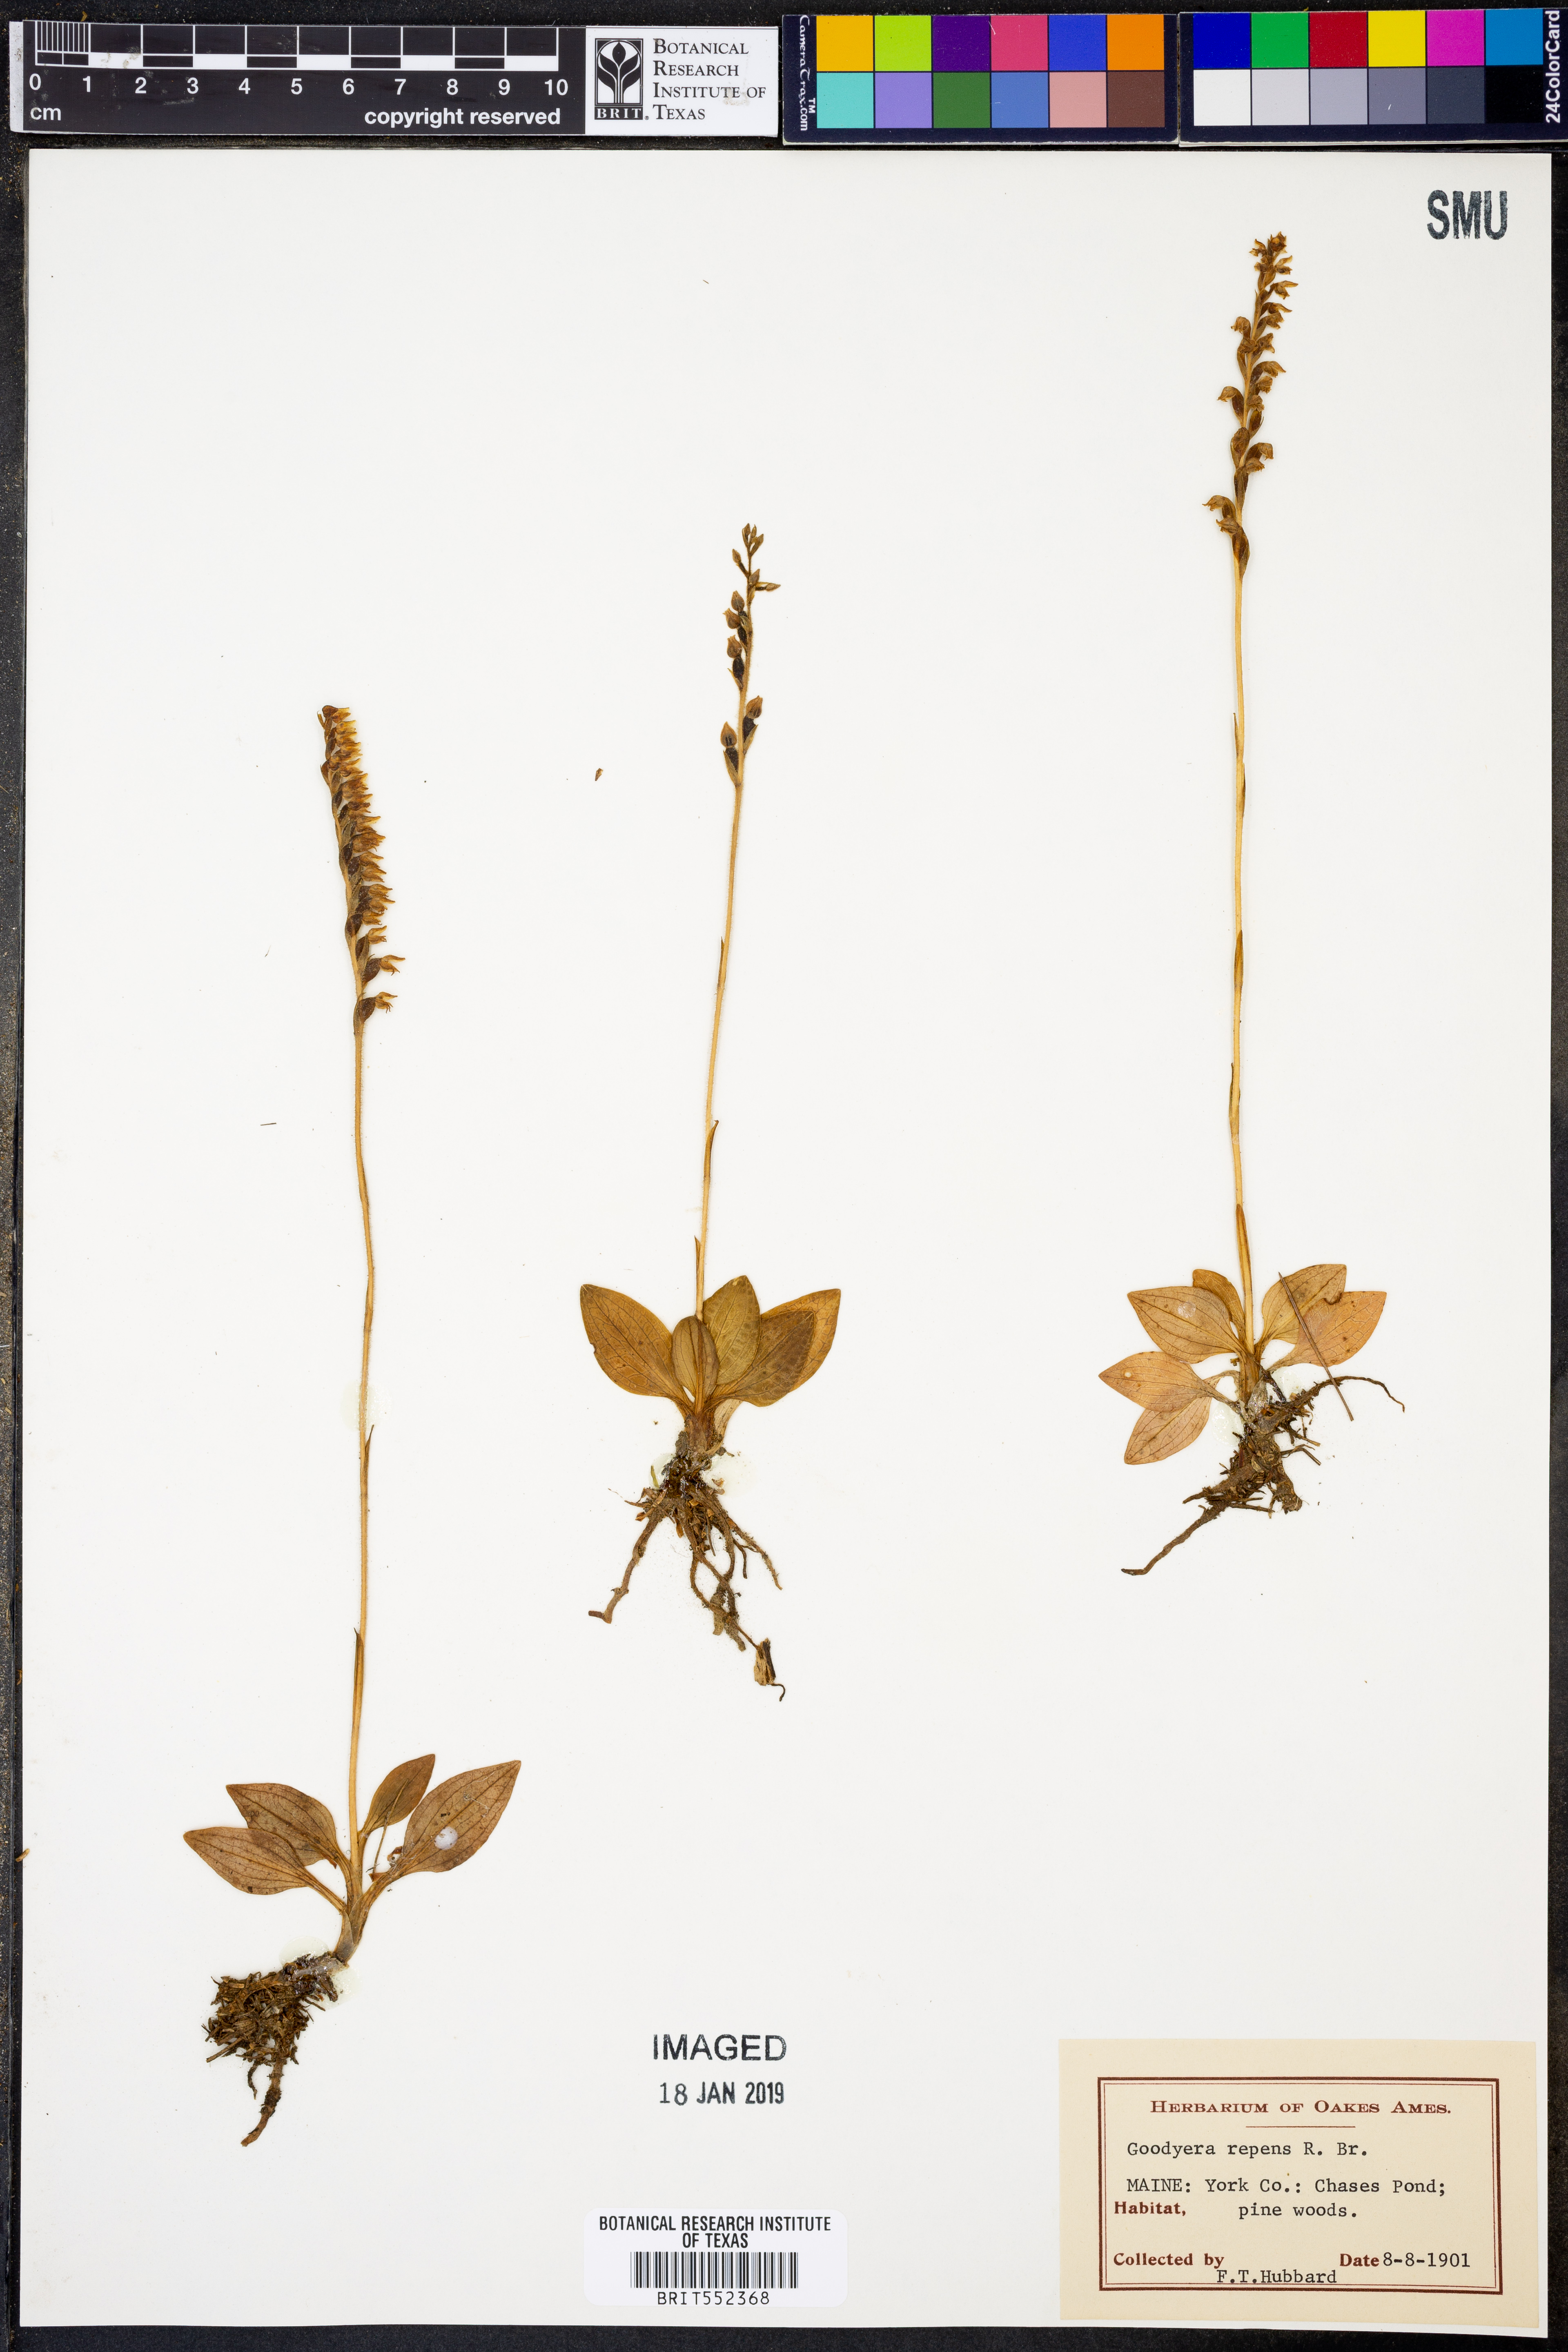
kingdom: Plantae
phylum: Tracheophyta
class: Liliopsida
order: Asparagales
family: Orchidaceae
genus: Goodyera
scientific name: Goodyera repens
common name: Creeping lady's-tresses
